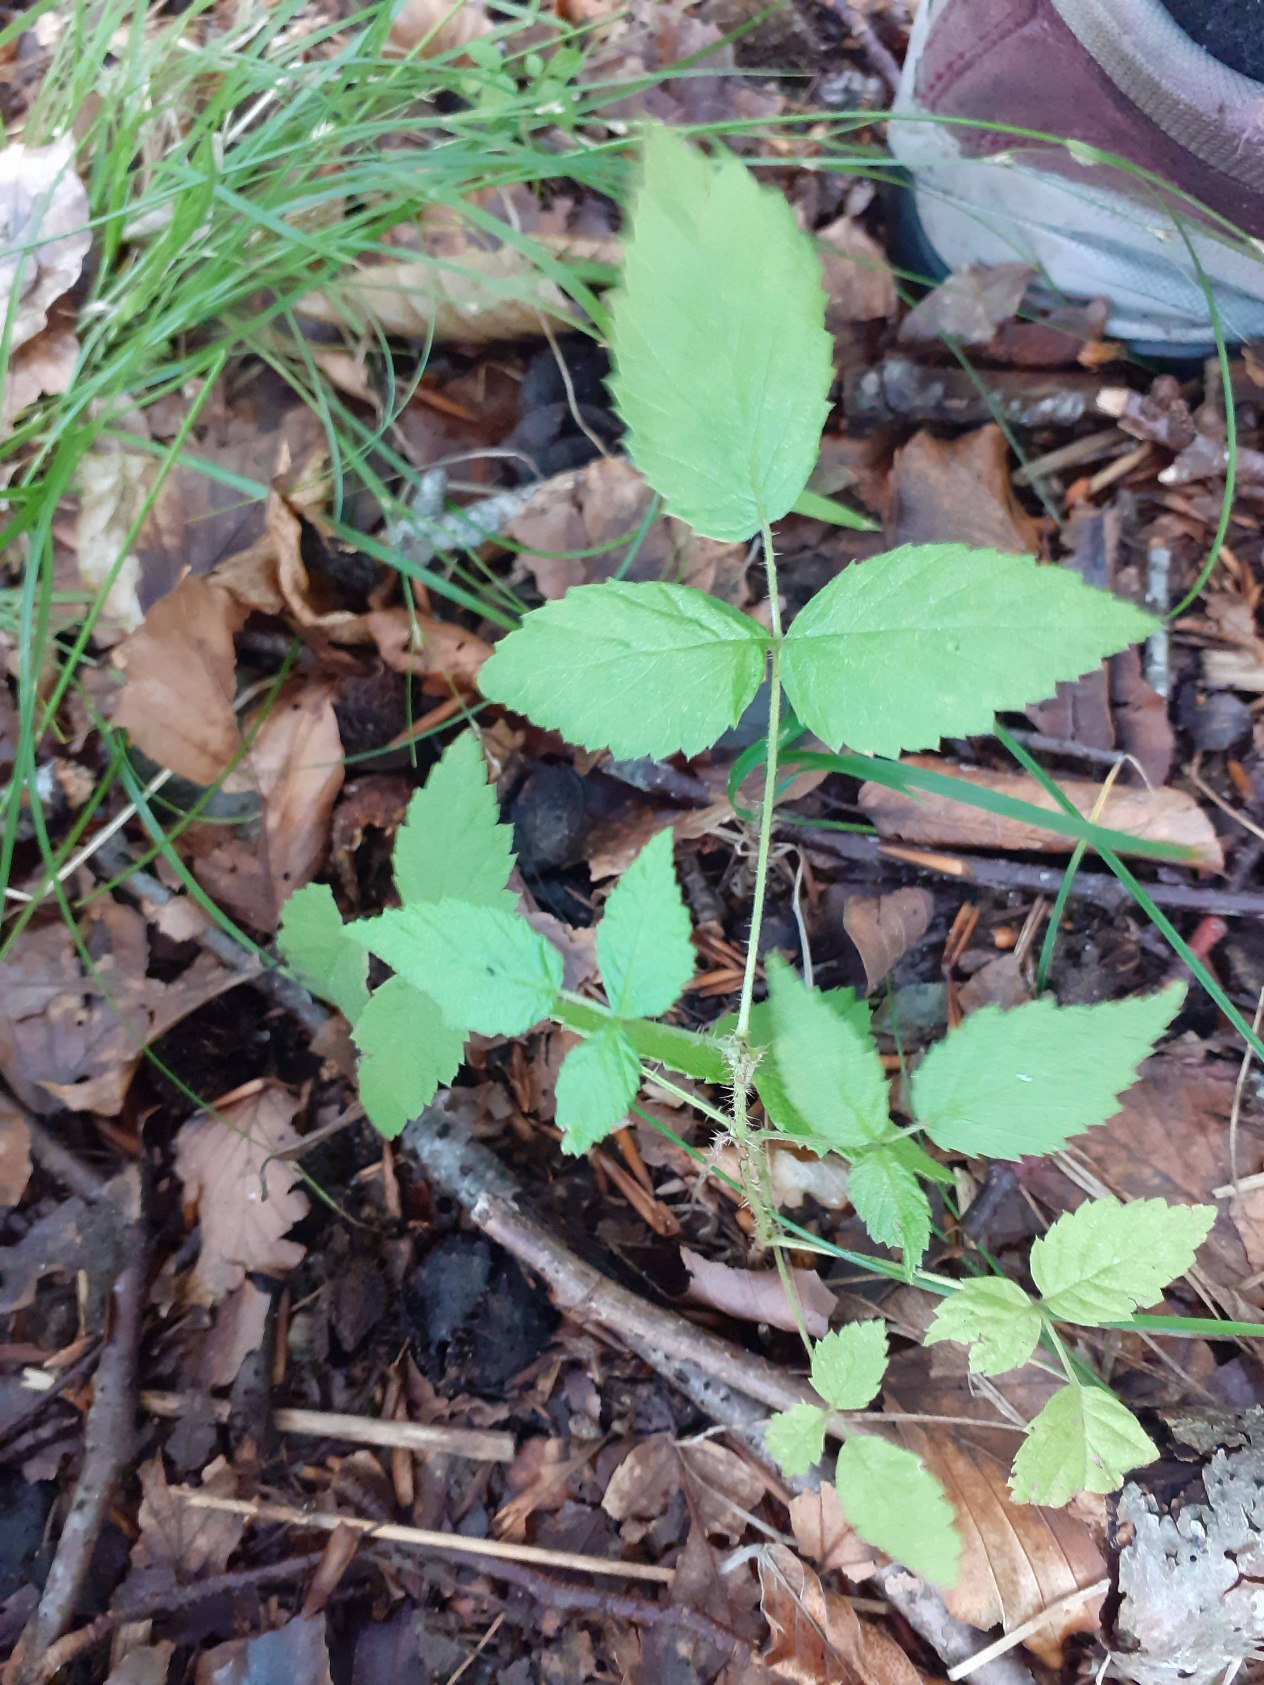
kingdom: Plantae
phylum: Tracheophyta
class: Magnoliopsida
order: Rosales
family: Rosaceae
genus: Rubus
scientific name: Rubus
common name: Klyngerslægten
